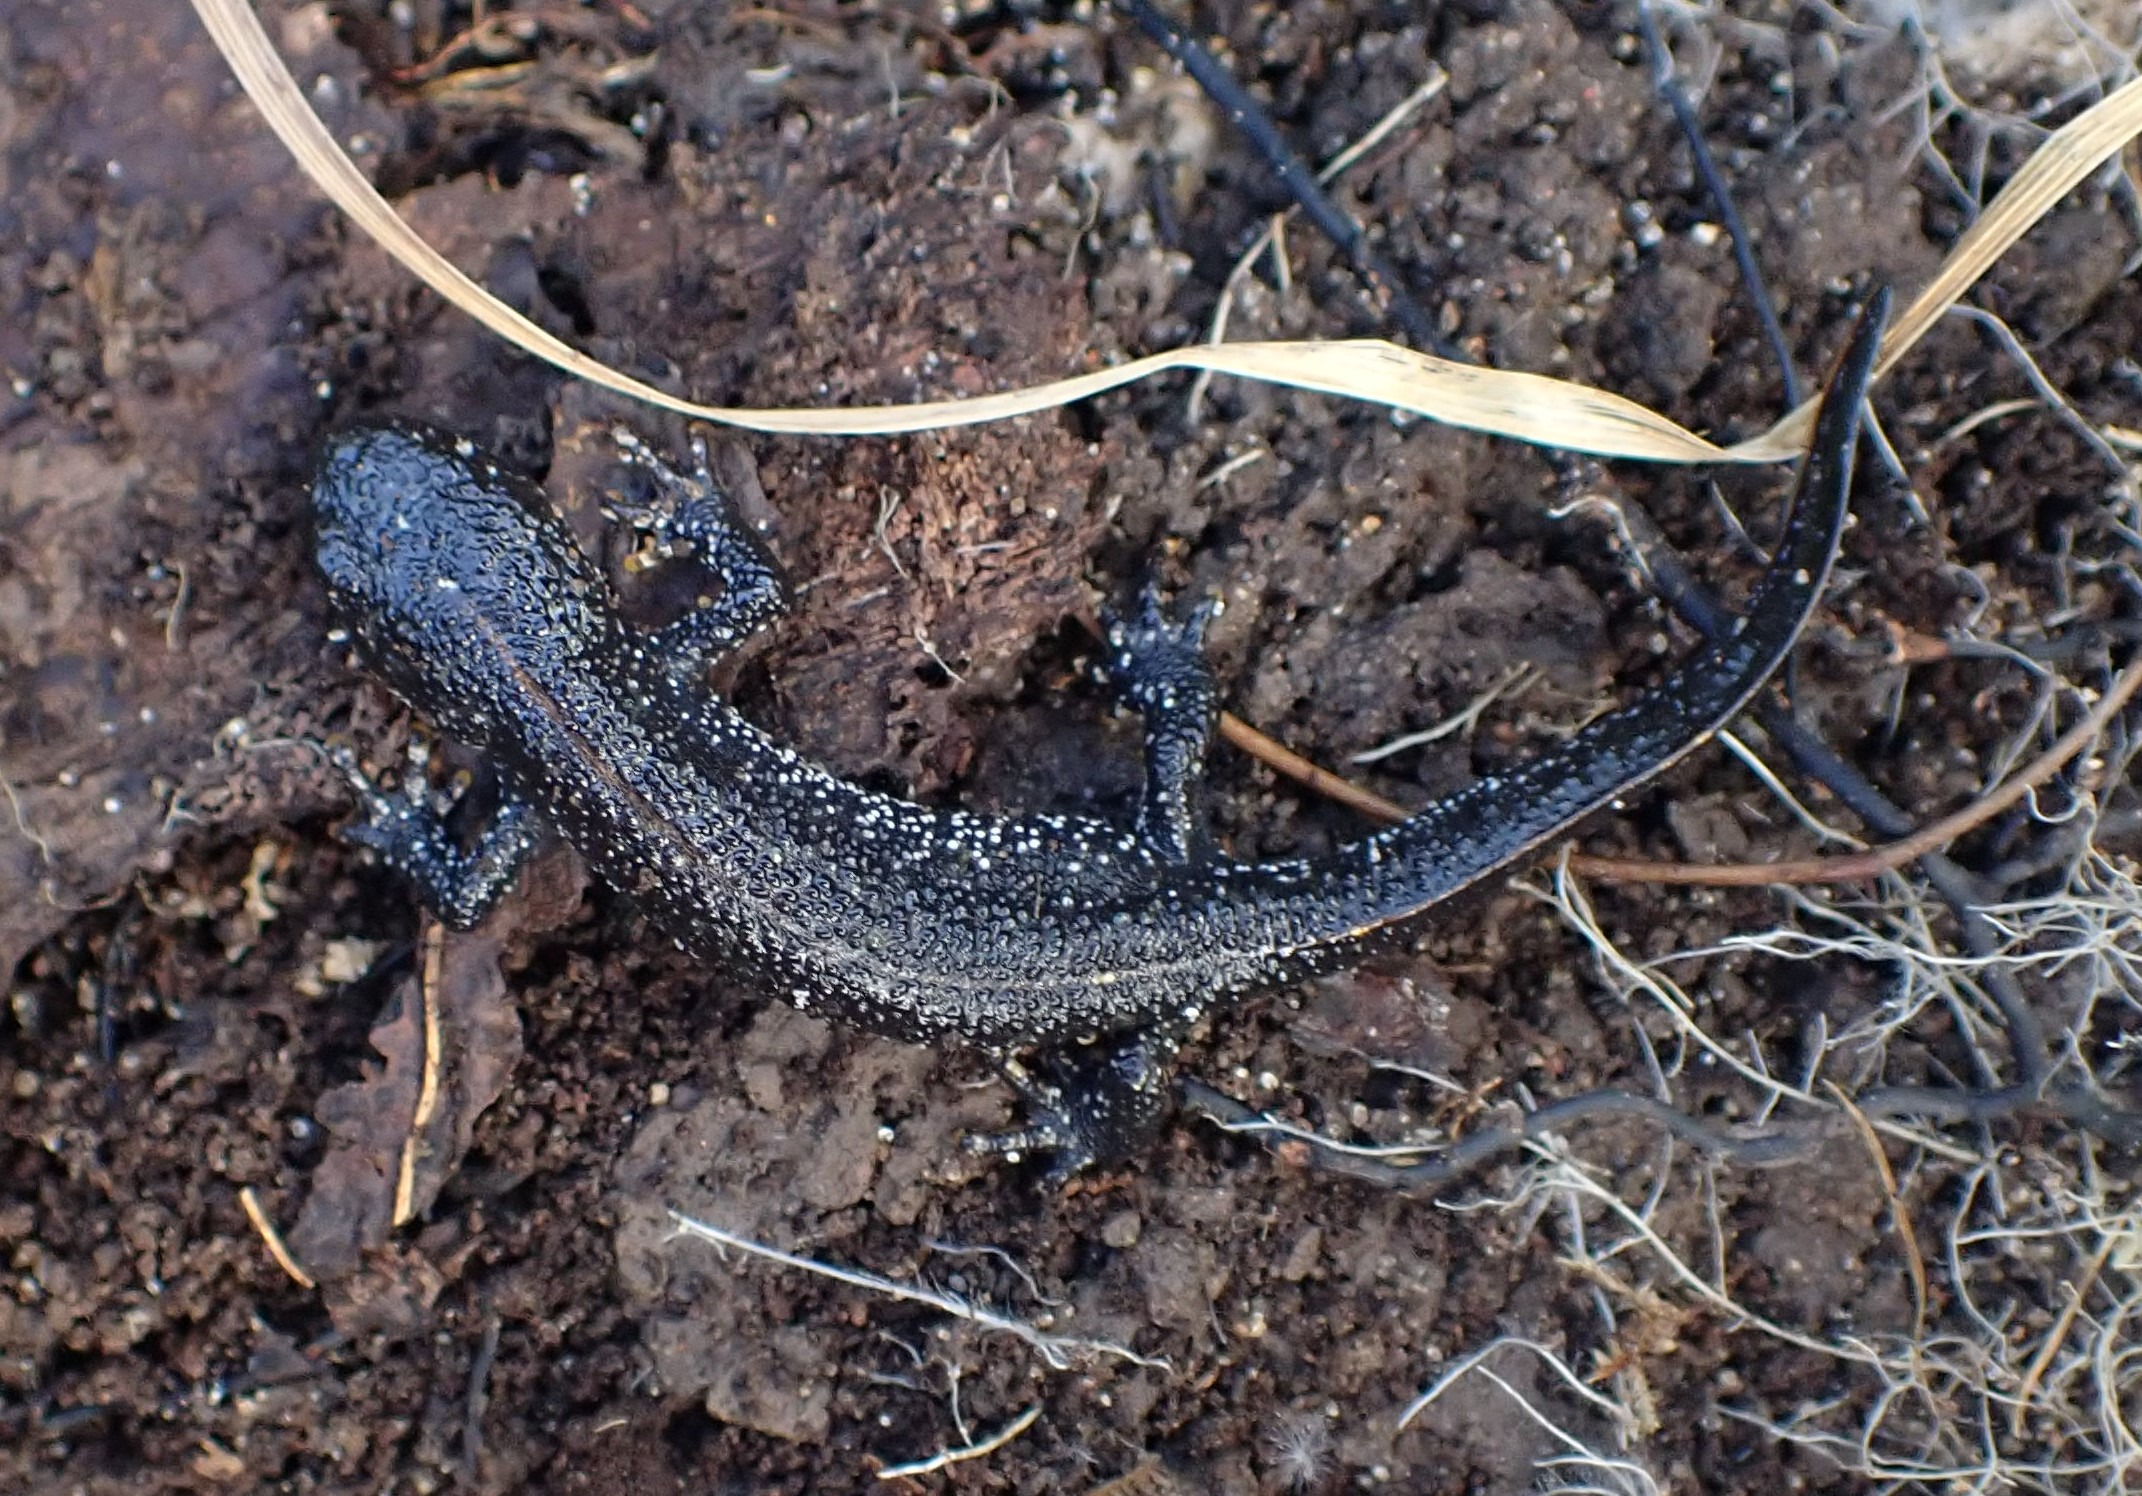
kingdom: Animalia
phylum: Chordata
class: Amphibia
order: Caudata
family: Salamandridae
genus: Triturus
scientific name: Triturus cristatus
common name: Stor vandsalamander
